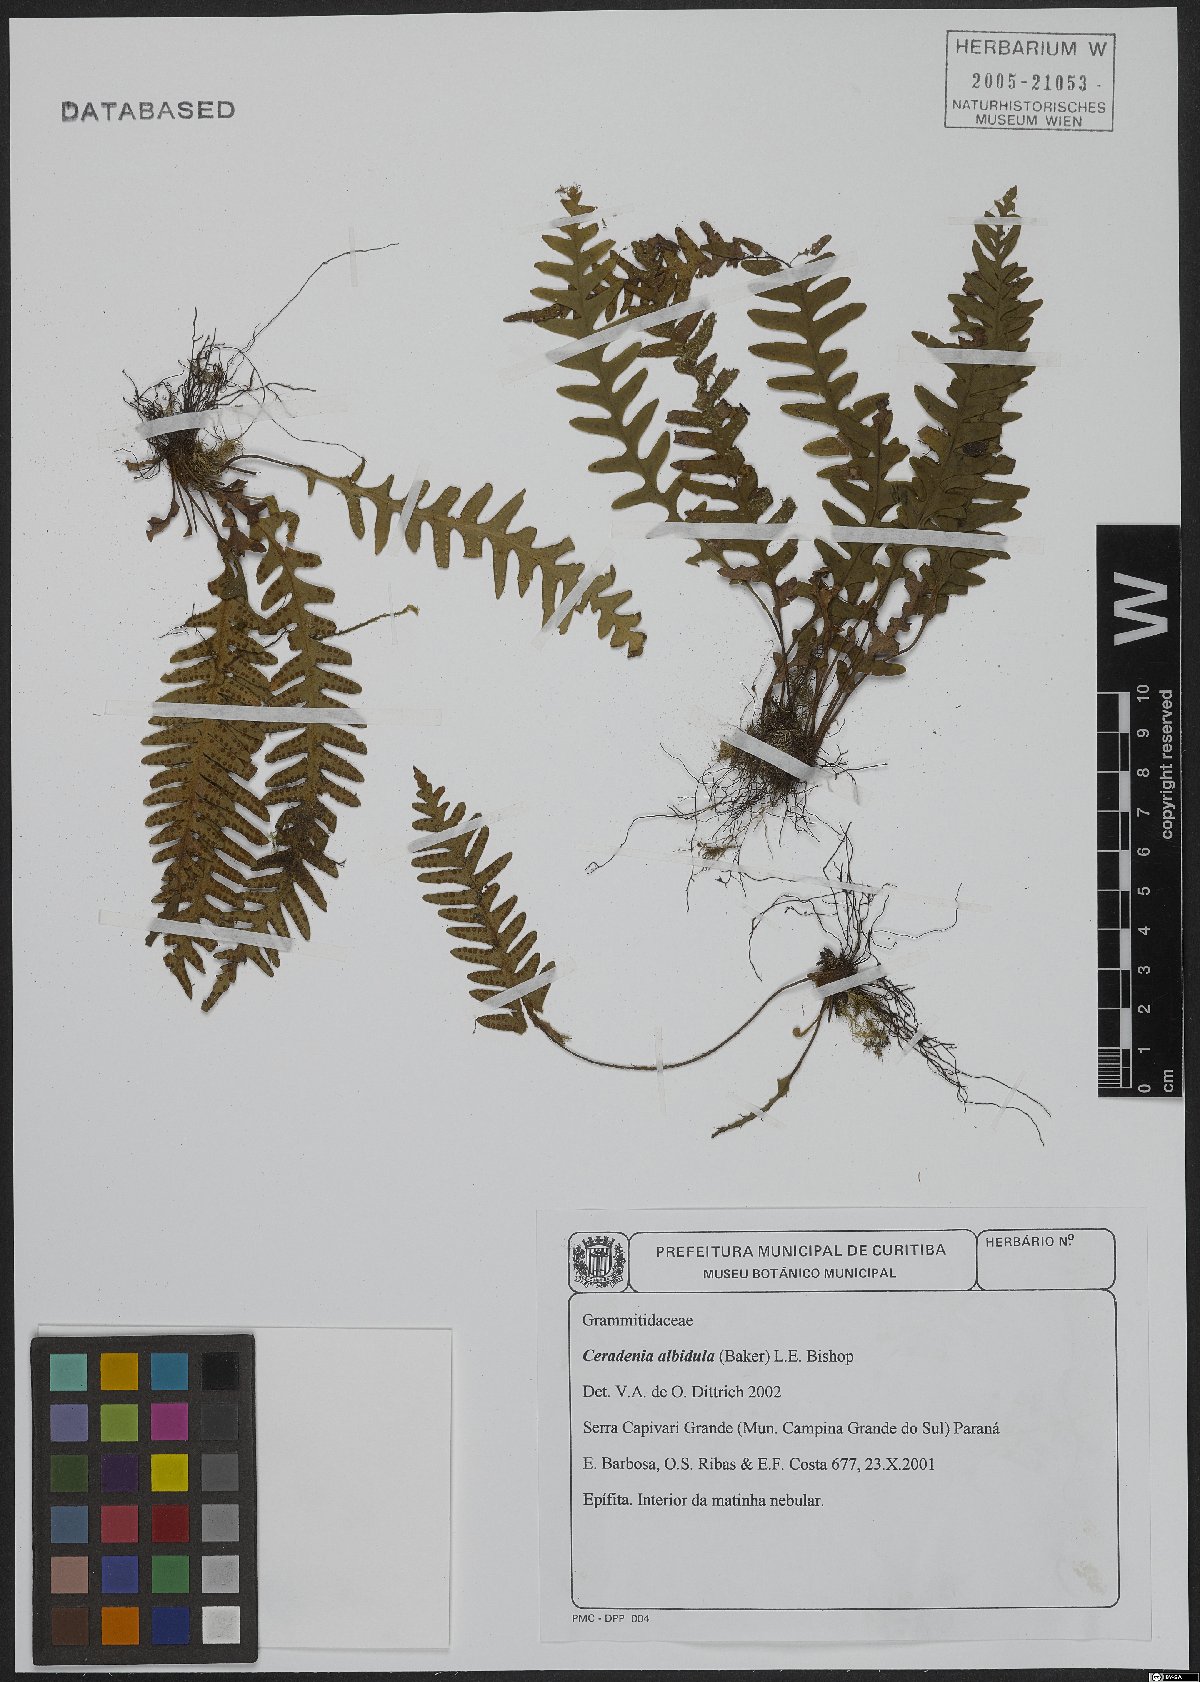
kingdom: Plantae
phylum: Tracheophyta
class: Polypodiopsida
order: Polypodiales
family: Polypodiaceae
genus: Ceradenia
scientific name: Ceradenia albidula
